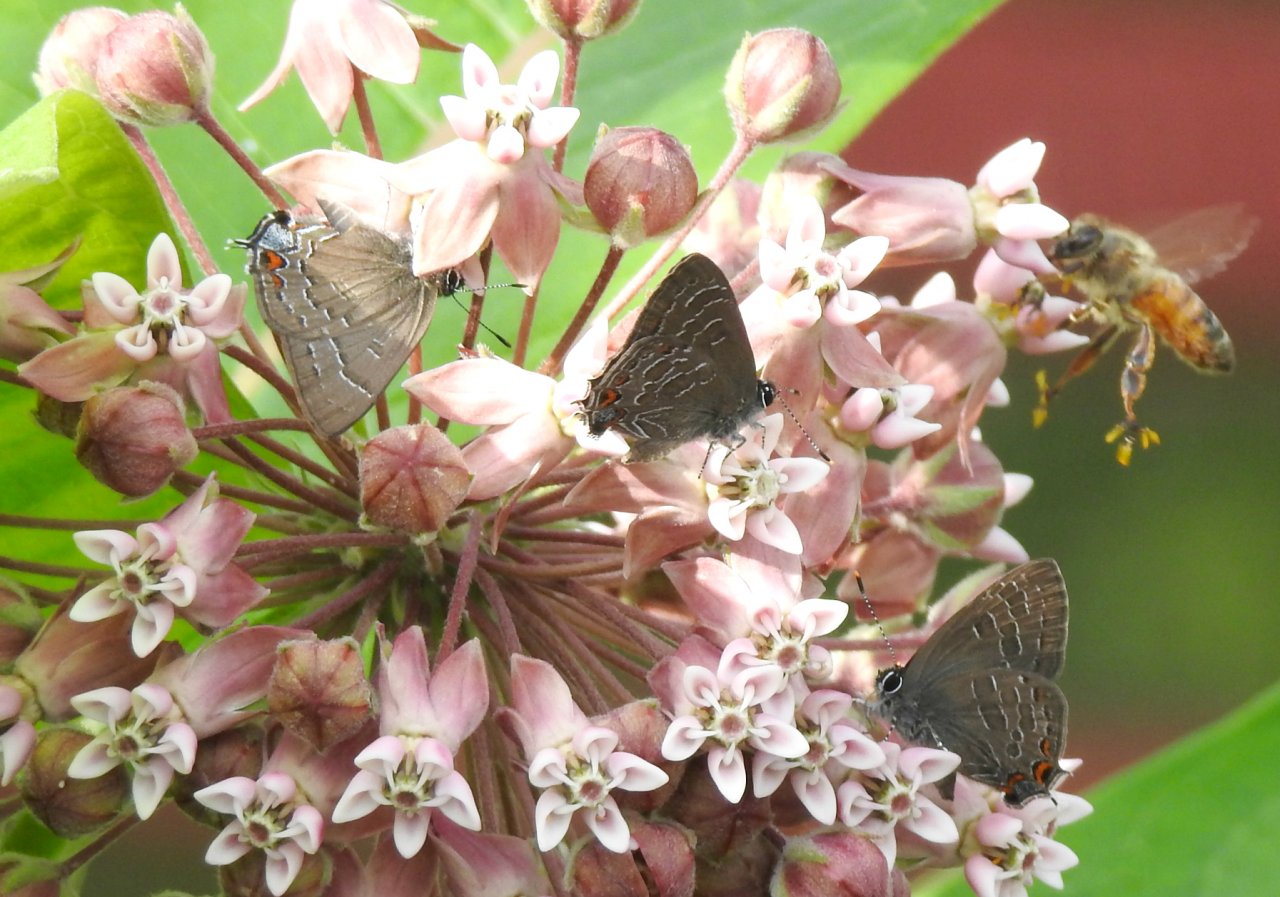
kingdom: Animalia
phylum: Arthropoda
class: Insecta
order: Lepidoptera
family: Lycaenidae
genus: Satyrium
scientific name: Satyrium calanus
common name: Banded Hairstreak
